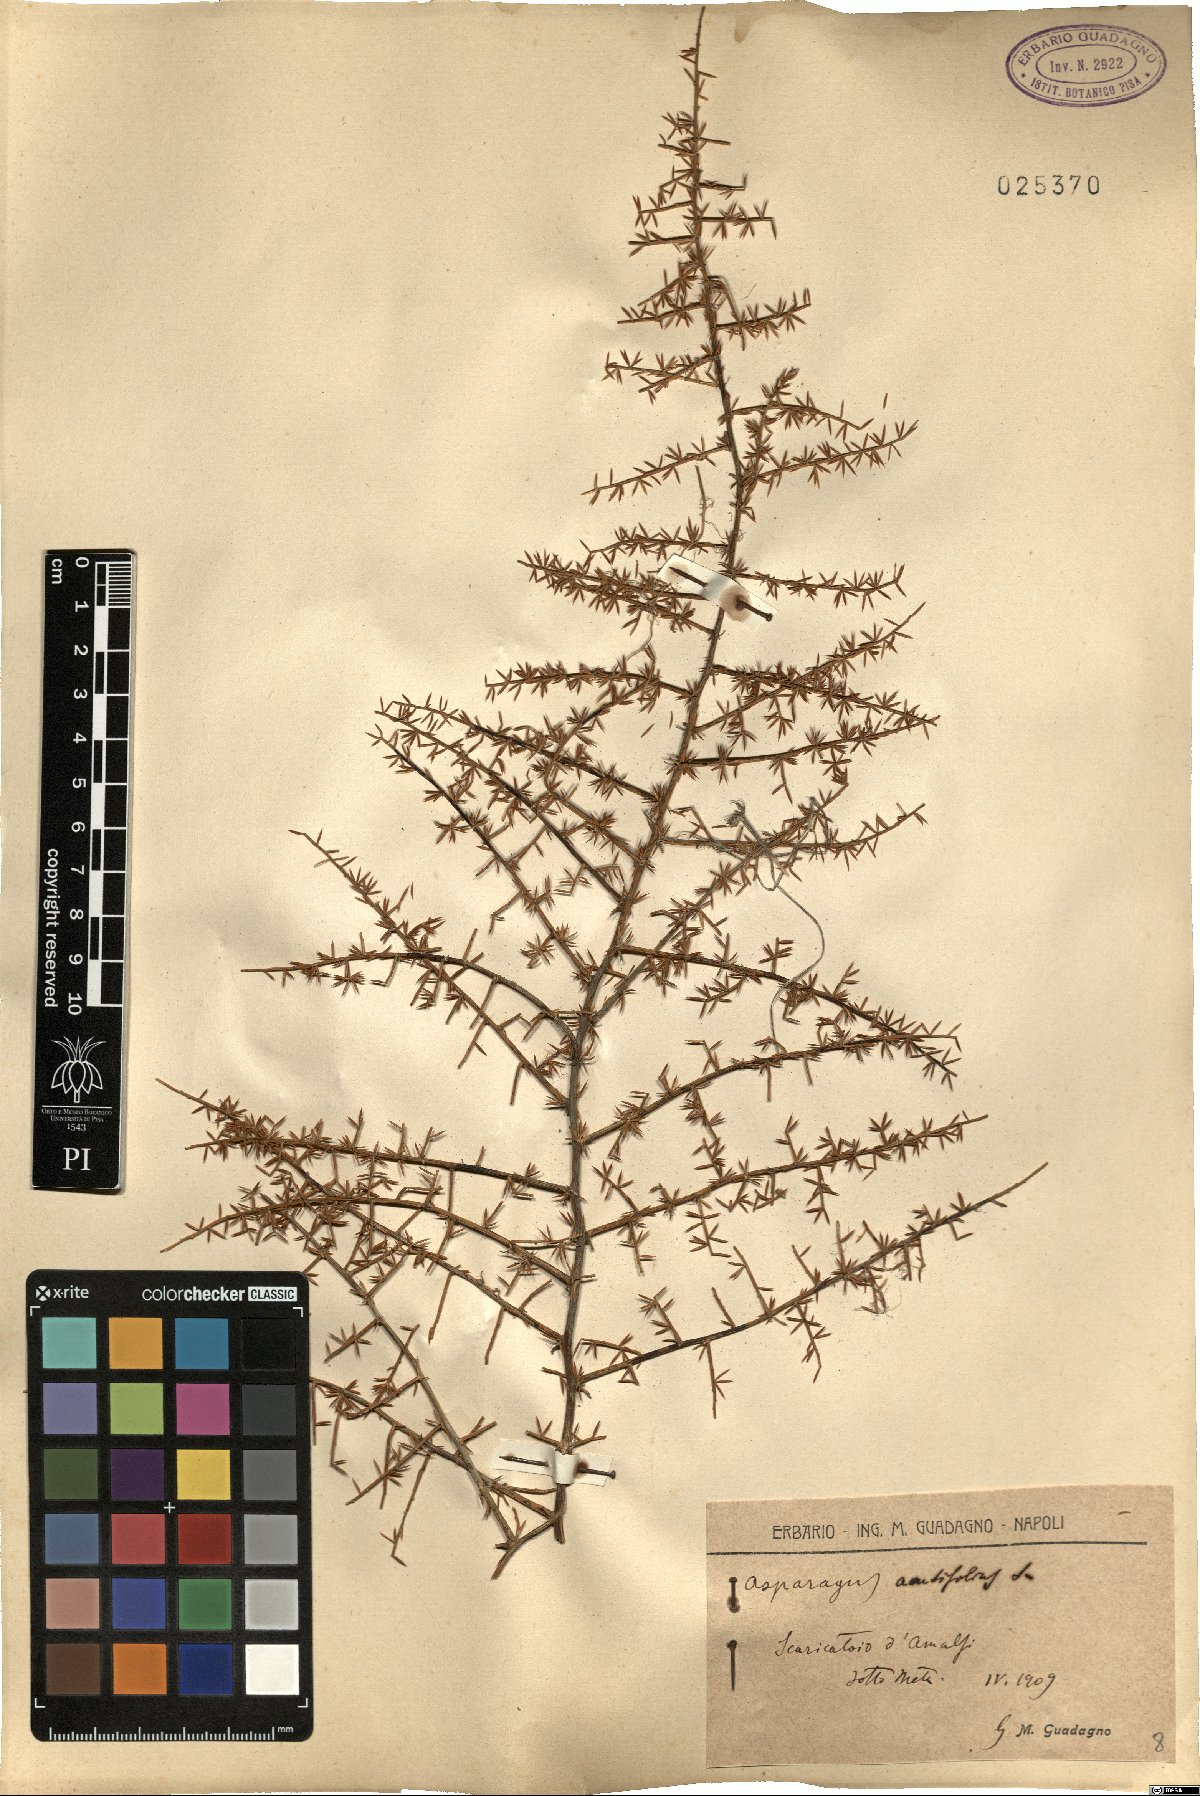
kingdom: Plantae
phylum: Tracheophyta
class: Liliopsida
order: Asparagales
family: Asparagaceae
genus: Asparagus
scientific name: Asparagus acutifolius
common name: Wild asparagus
